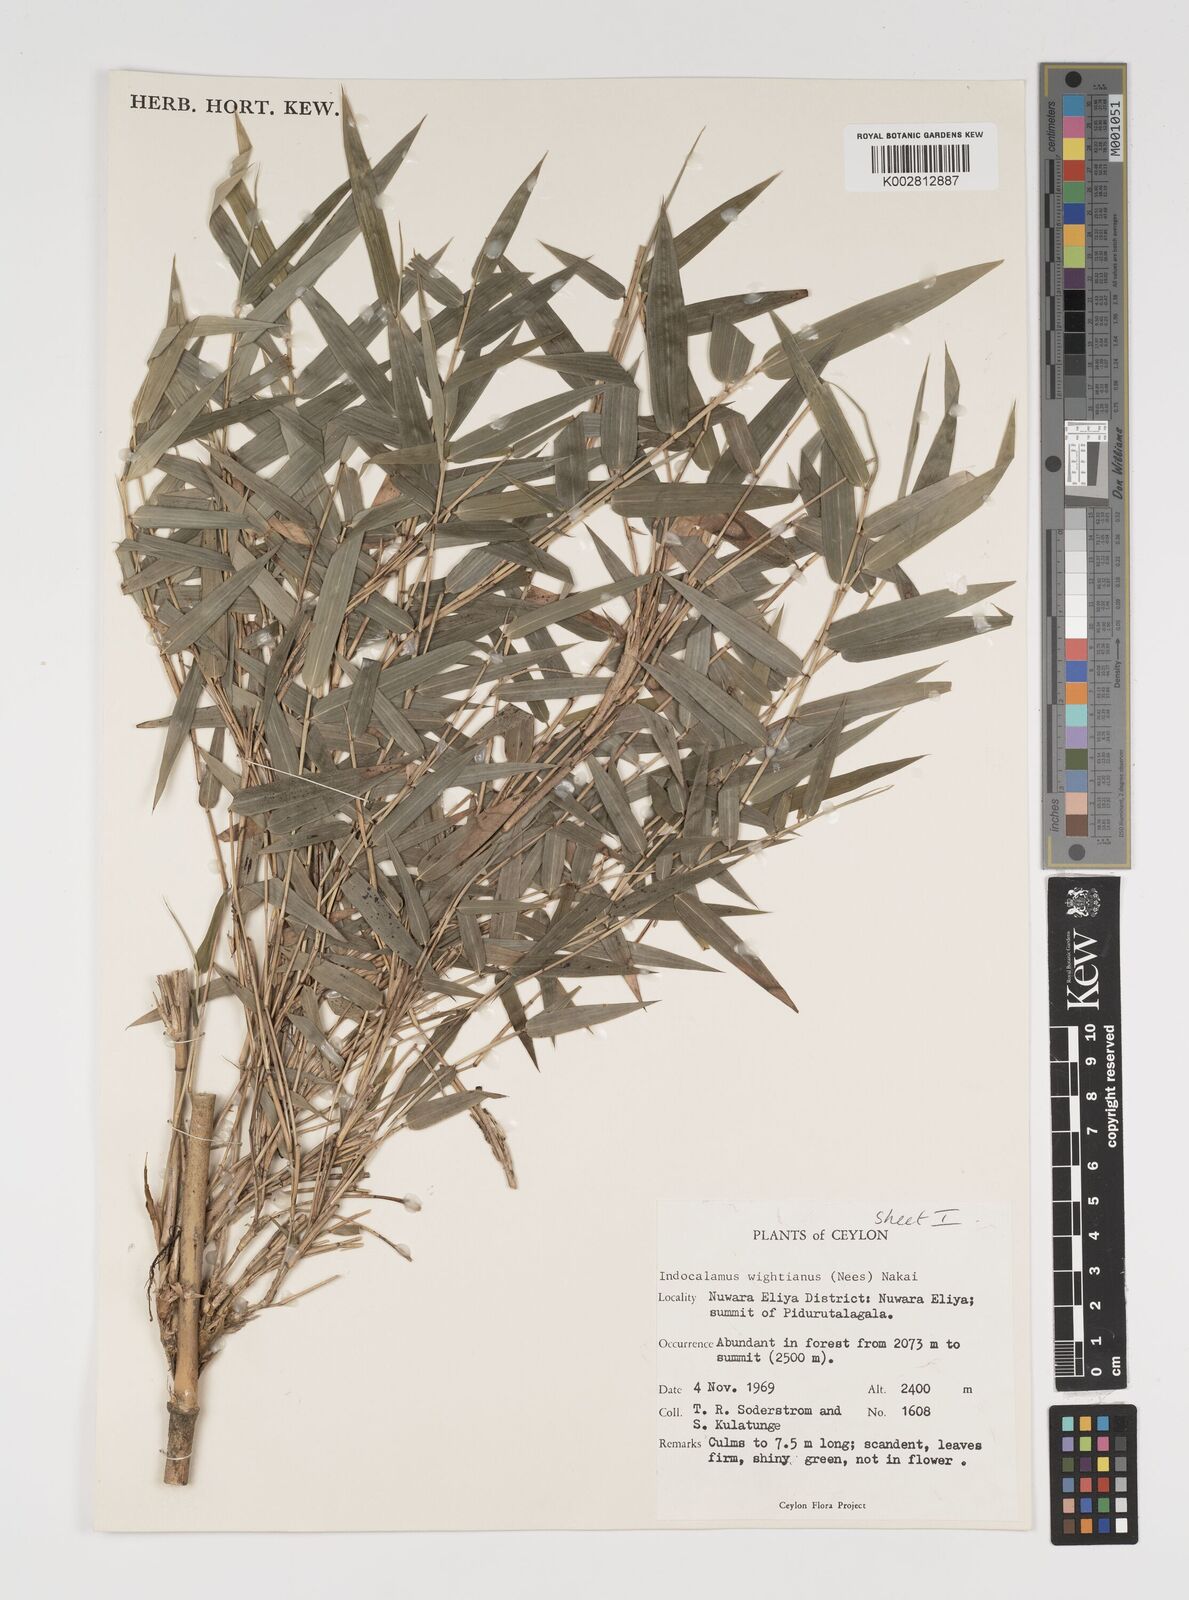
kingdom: Plantae
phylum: Tracheophyta
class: Liliopsida
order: Poales
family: Poaceae
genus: Kuruna
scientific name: Kuruna scandens
